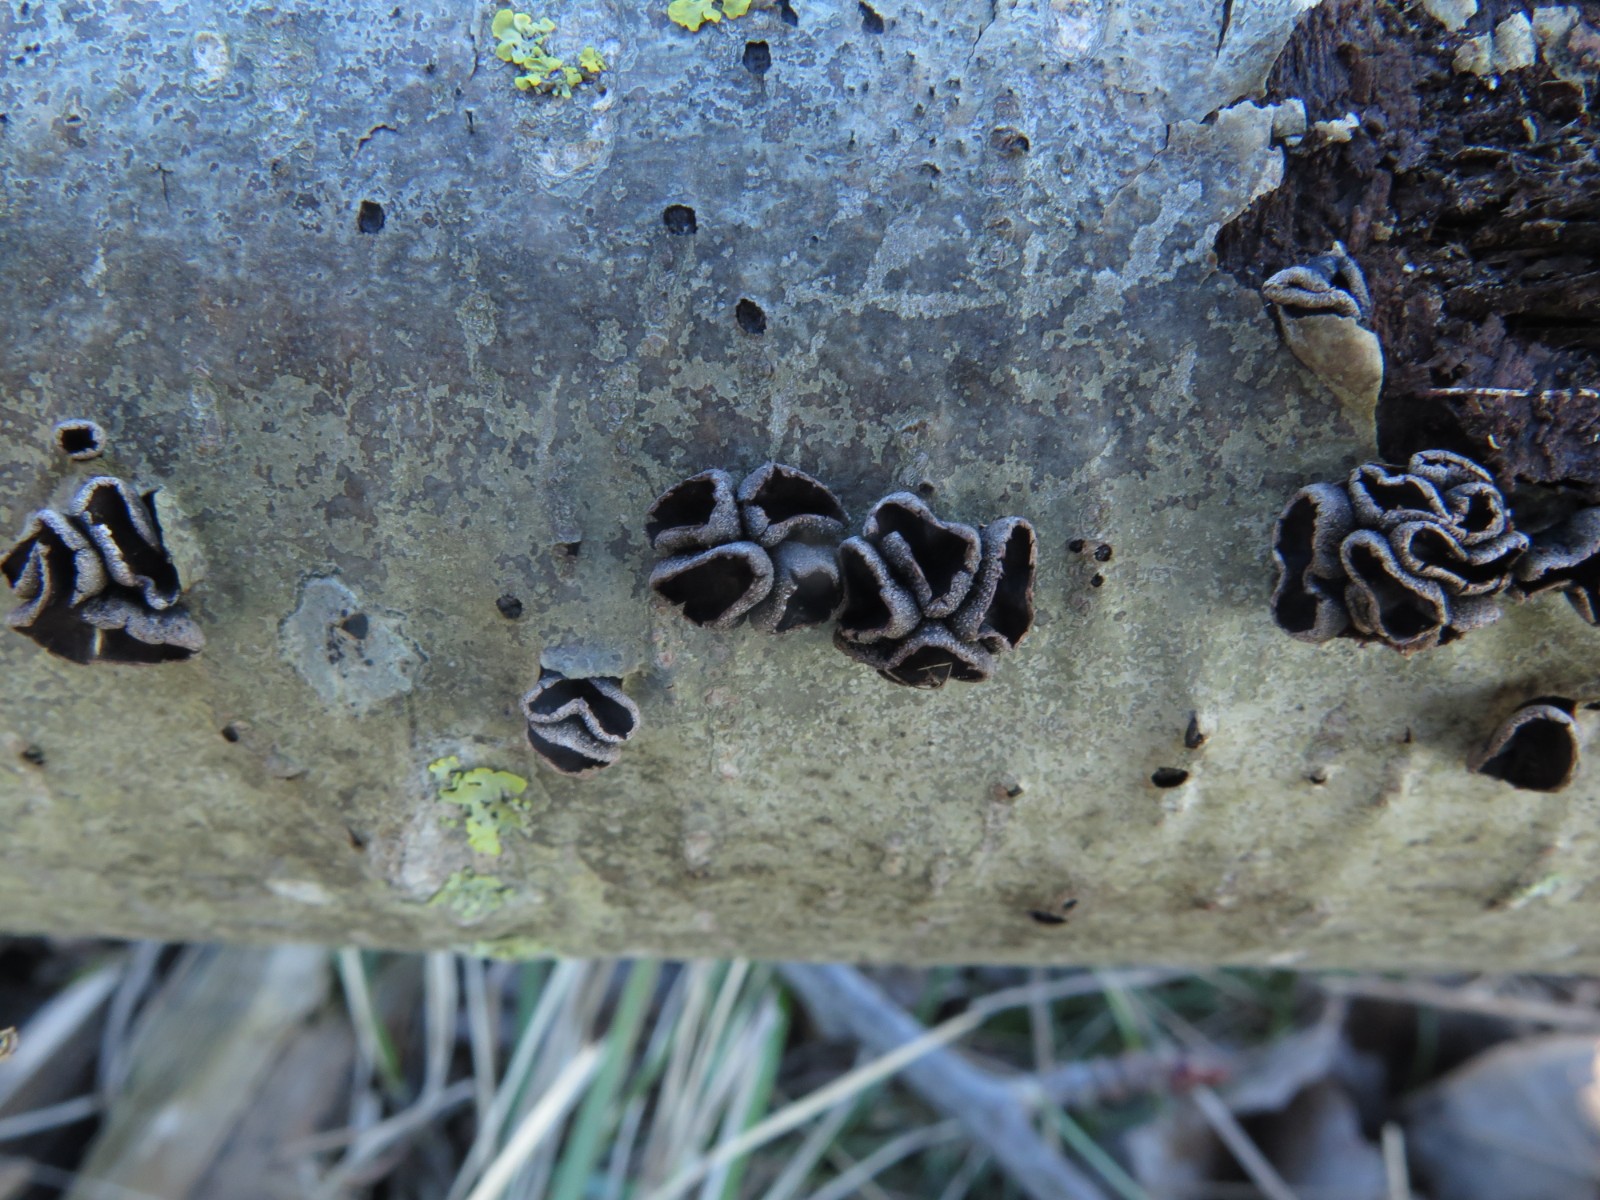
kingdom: Fungi
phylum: Ascomycota
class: Leotiomycetes
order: Helotiales
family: Sclerotiniaceae
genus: Sclerencoelia
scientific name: Sclerencoelia fascicularis
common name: poppel-læderskive
